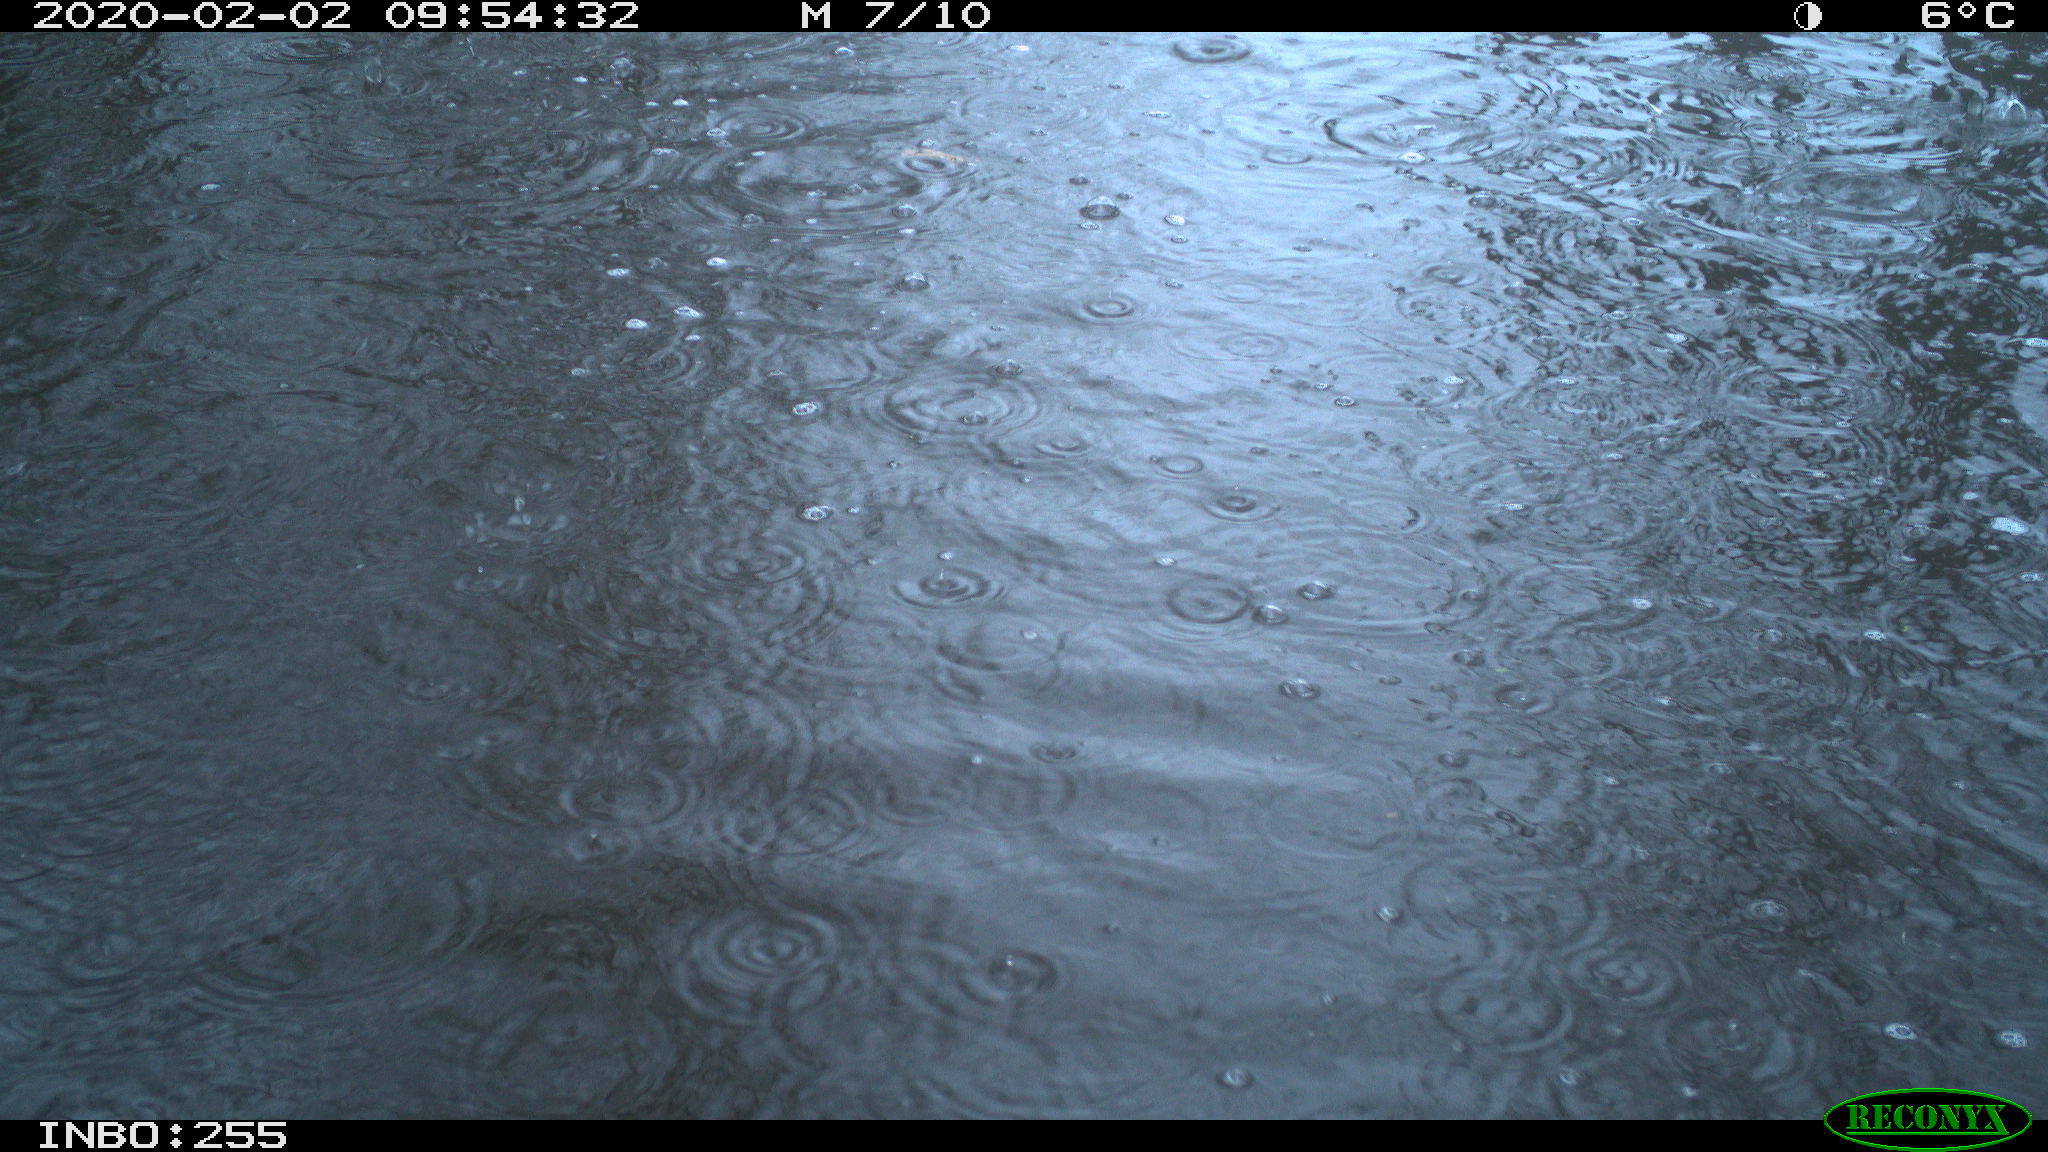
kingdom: Animalia
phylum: Chordata
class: Aves
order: Gruiformes
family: Rallidae
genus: Gallinula
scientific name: Gallinula chloropus
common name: Common moorhen
